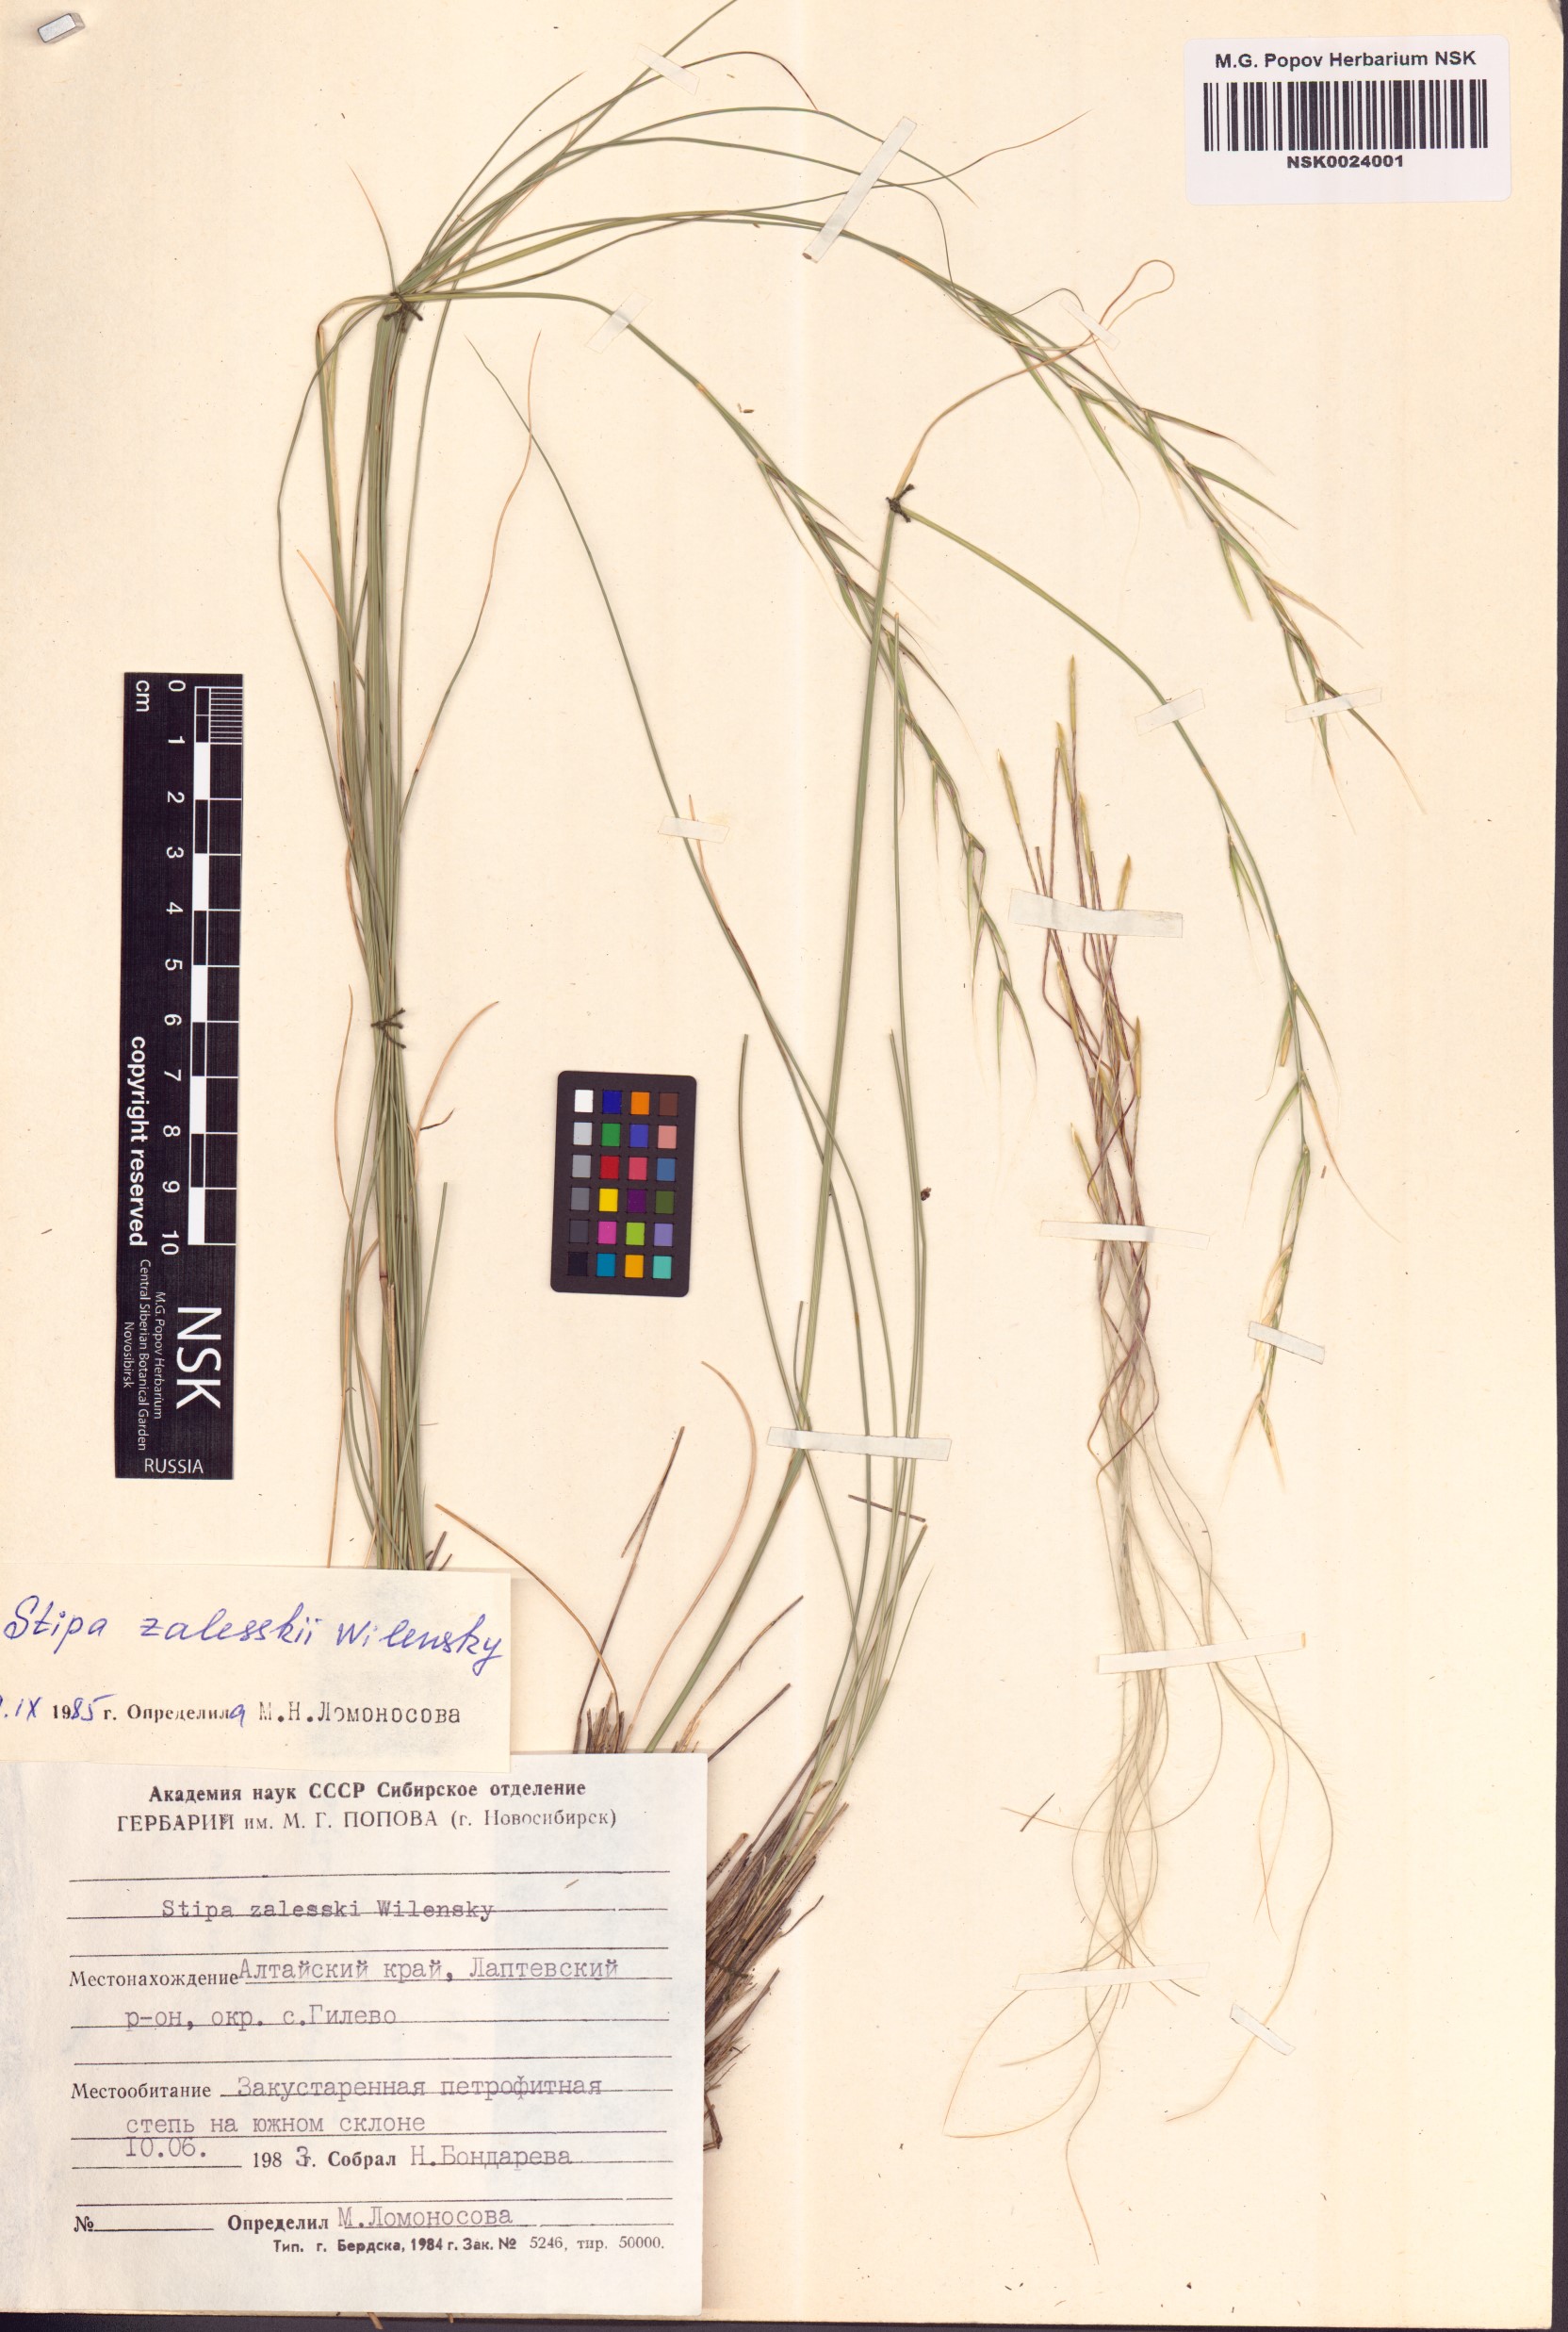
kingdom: Plantae
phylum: Tracheophyta
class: Liliopsida
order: Poales
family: Poaceae
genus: Stipa
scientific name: Stipa zalesskii
